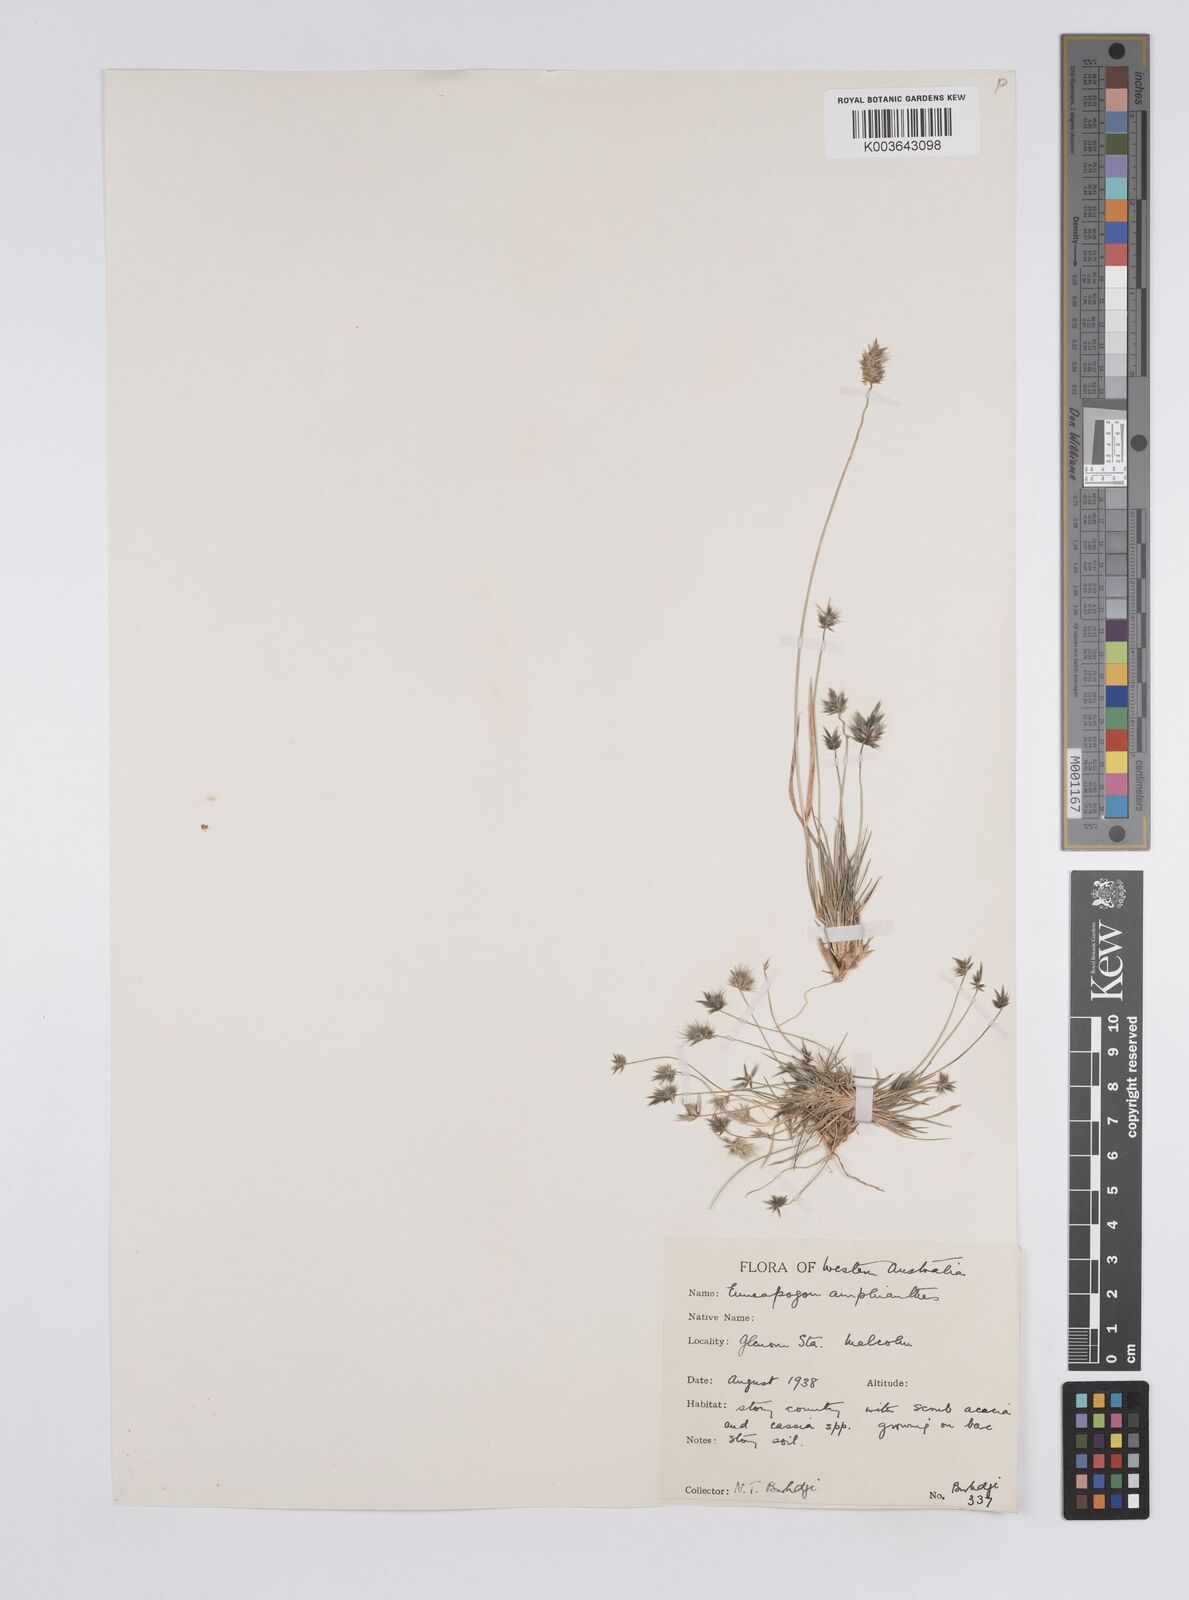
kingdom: Plantae
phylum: Tracheophyta
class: Liliopsida
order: Poales
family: Poaceae
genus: Enneapogon
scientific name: Enneapogon caerulescens
